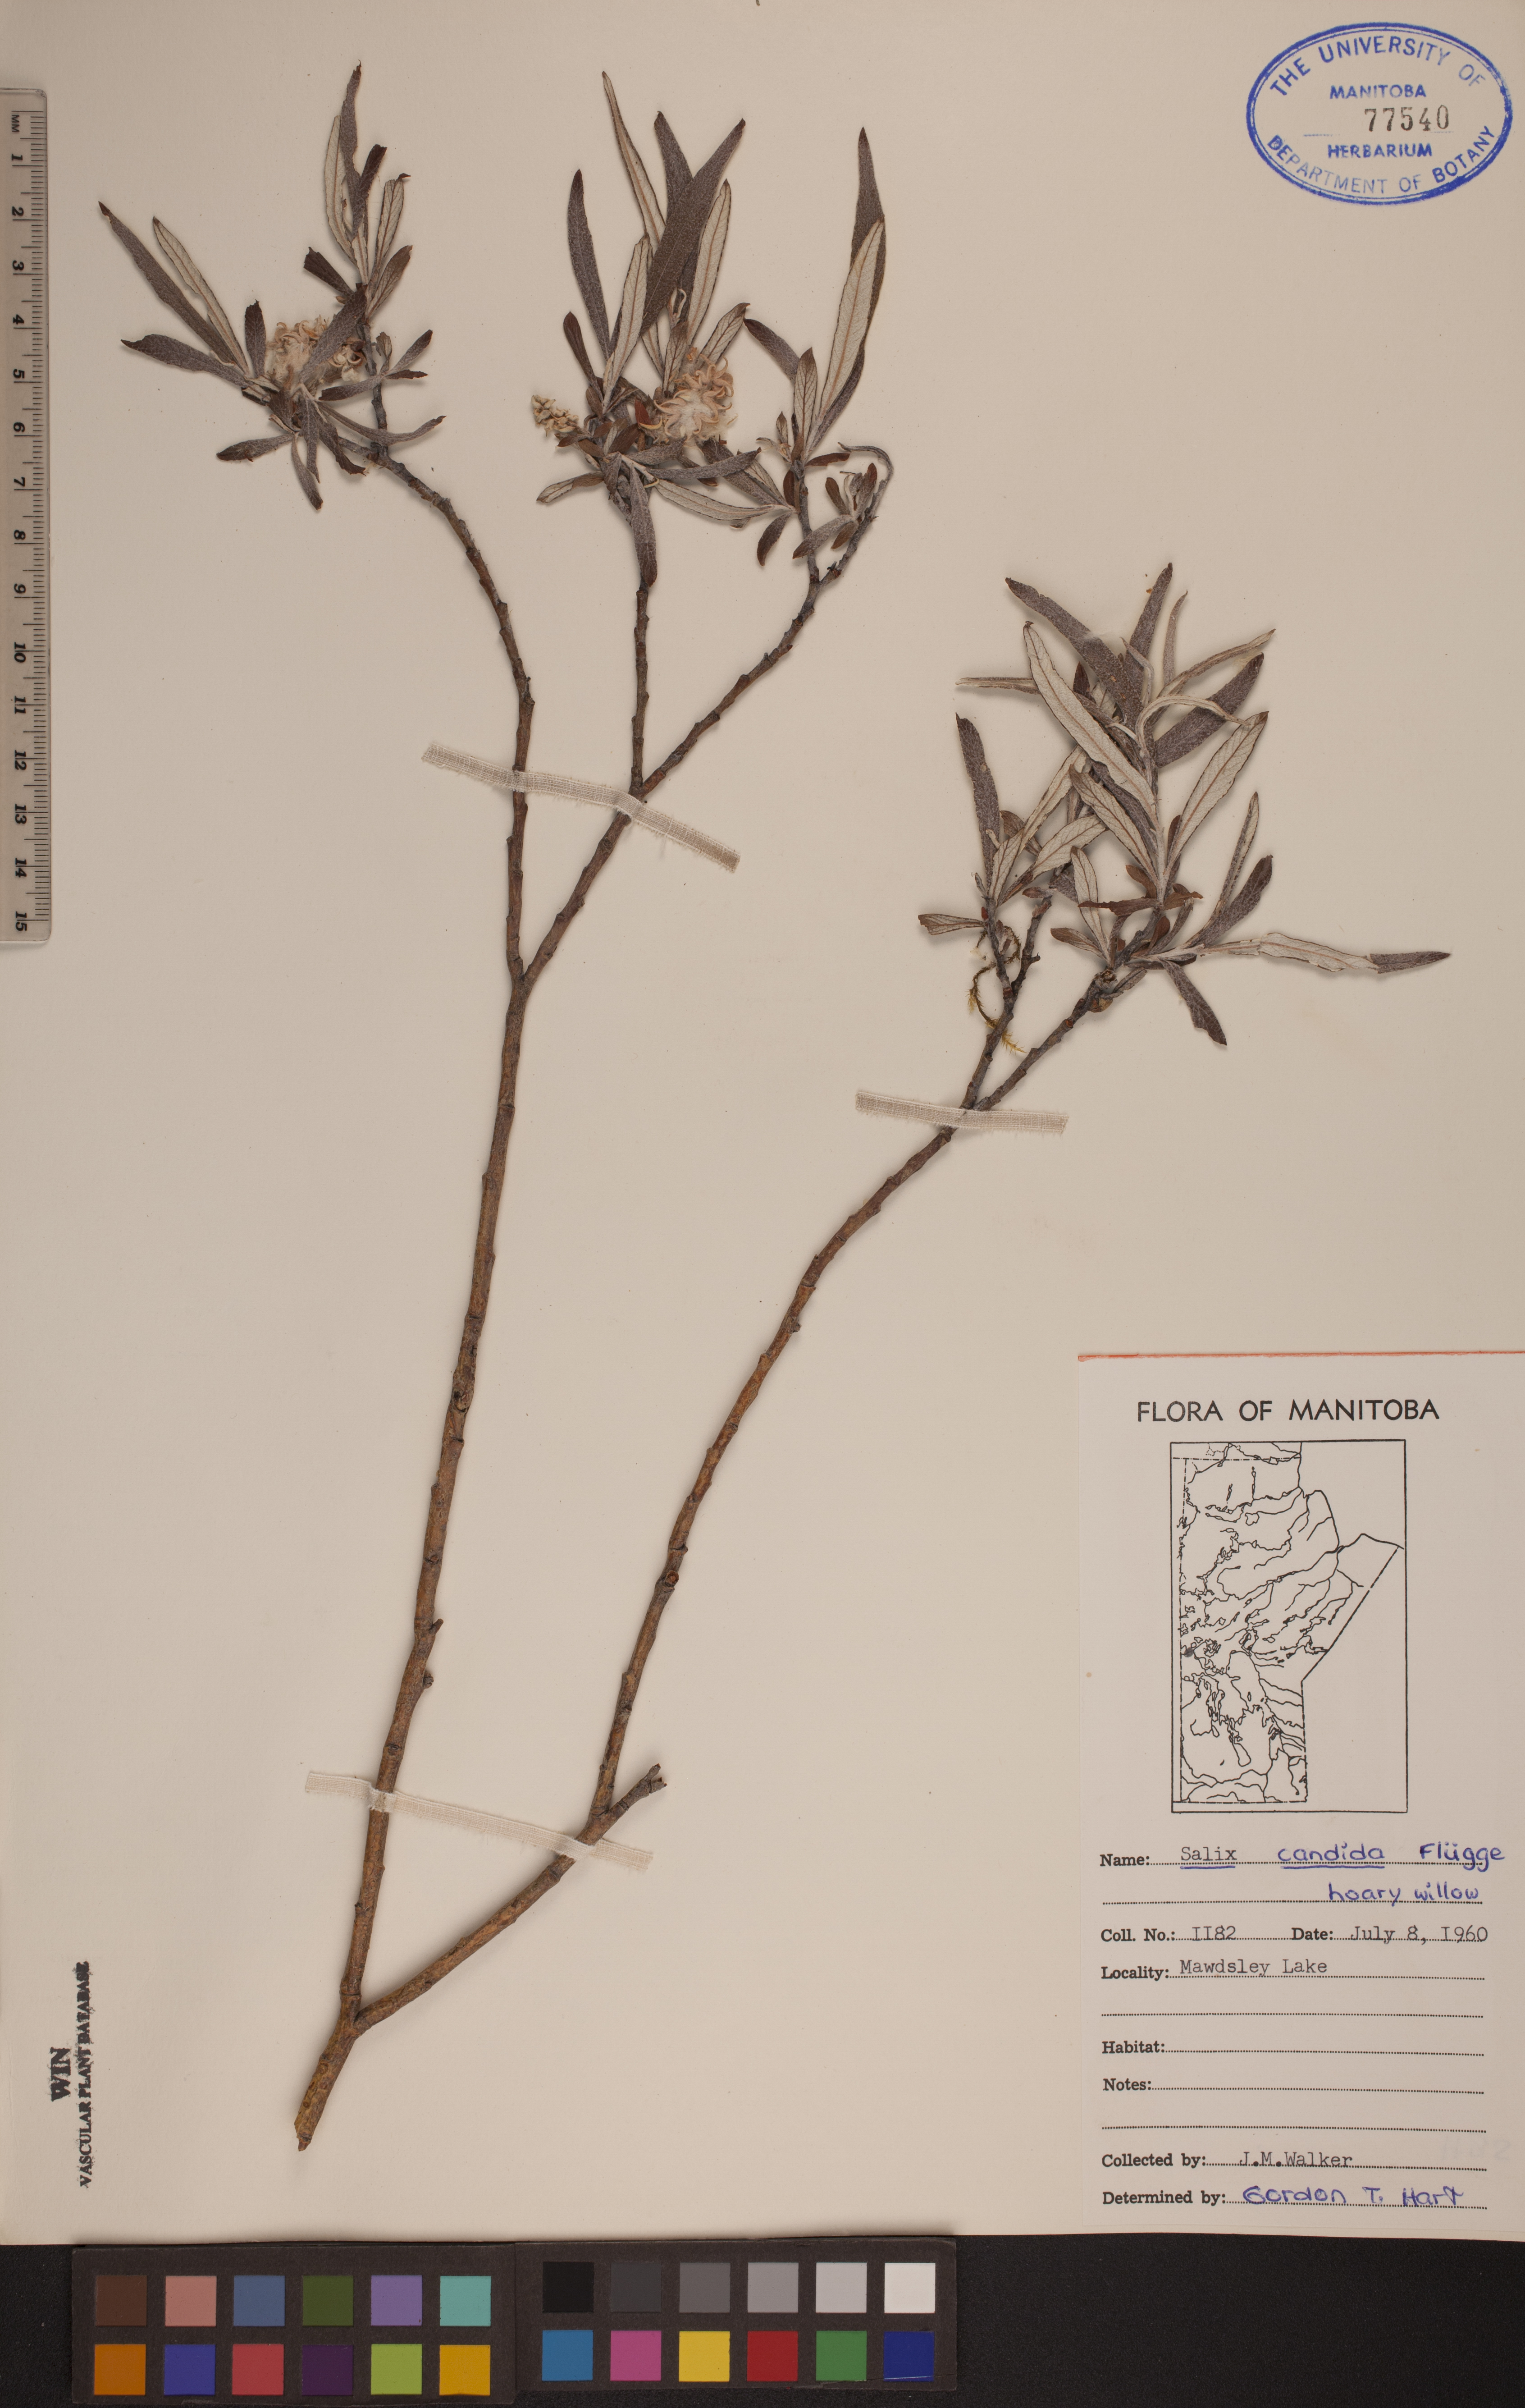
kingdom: Plantae
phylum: Tracheophyta
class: Magnoliopsida
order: Malpighiales
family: Salicaceae
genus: Salix
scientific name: Salix candida
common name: Hoary willow
